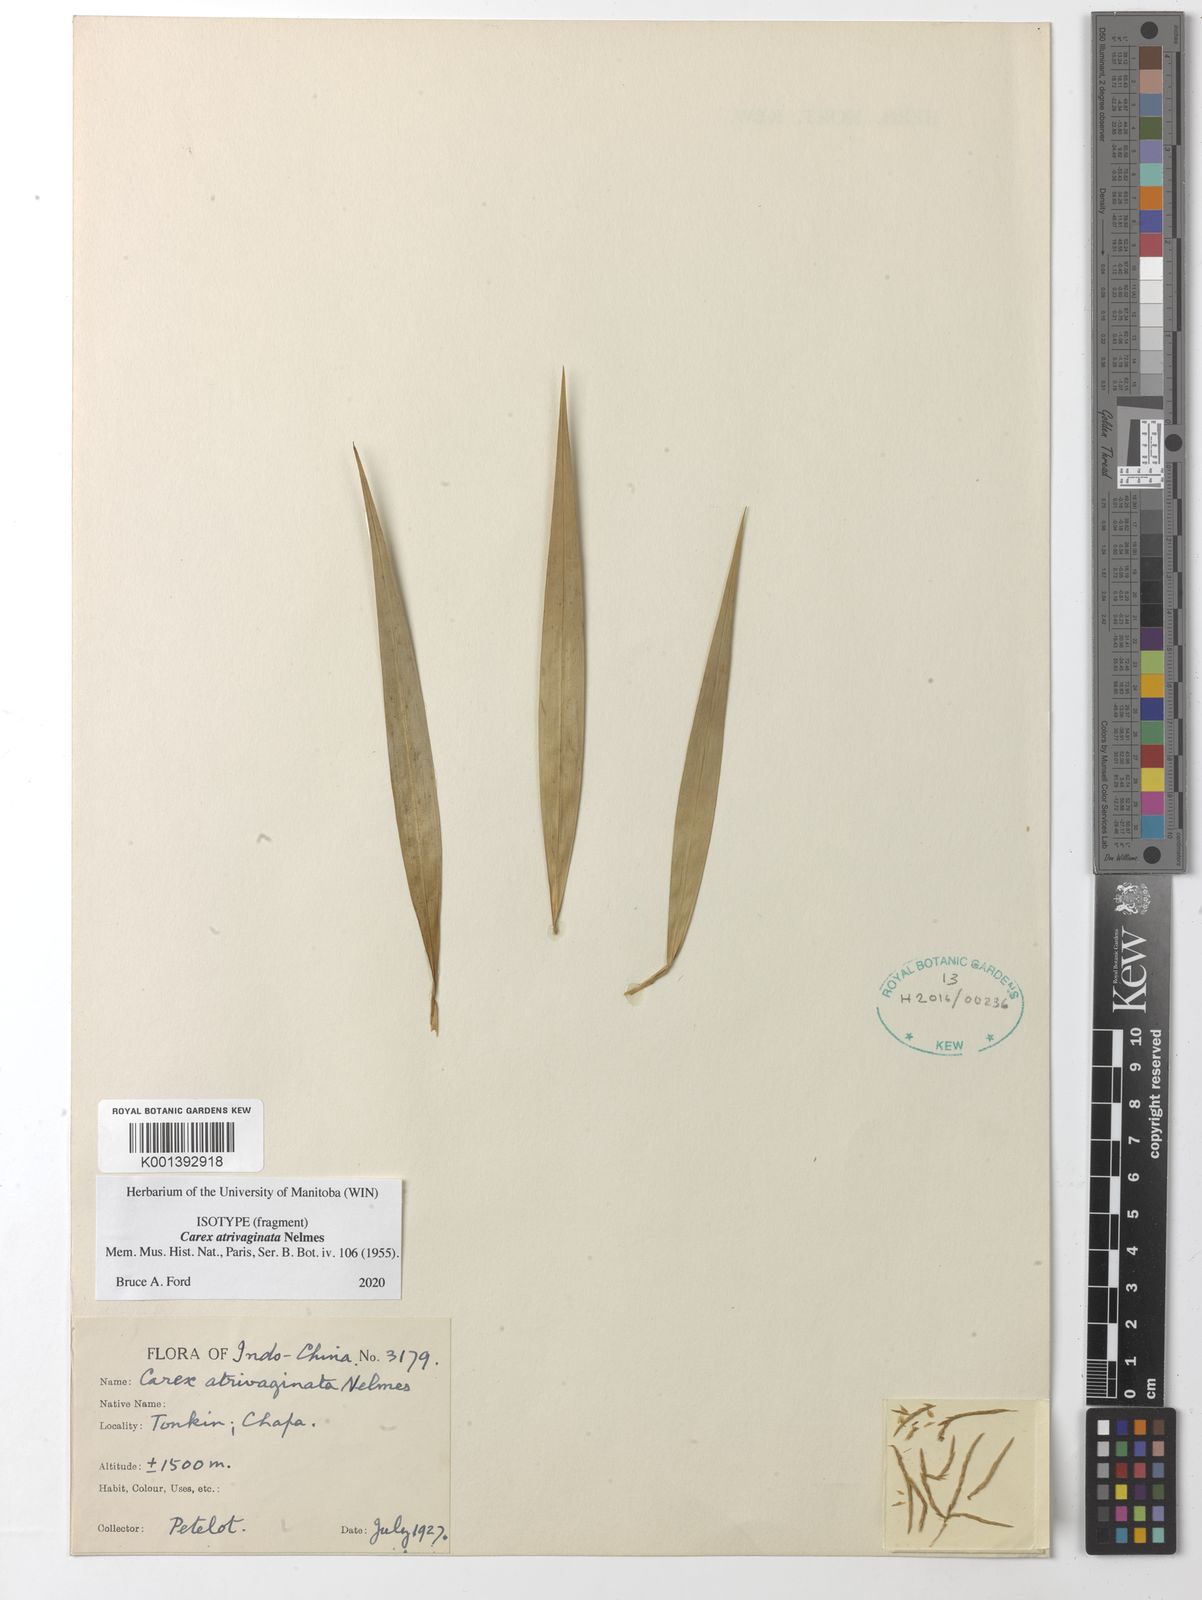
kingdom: Plantae
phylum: Tracheophyta
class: Liliopsida
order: Poales
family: Cyperaceae
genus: Carex
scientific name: Carex atrivaginata
